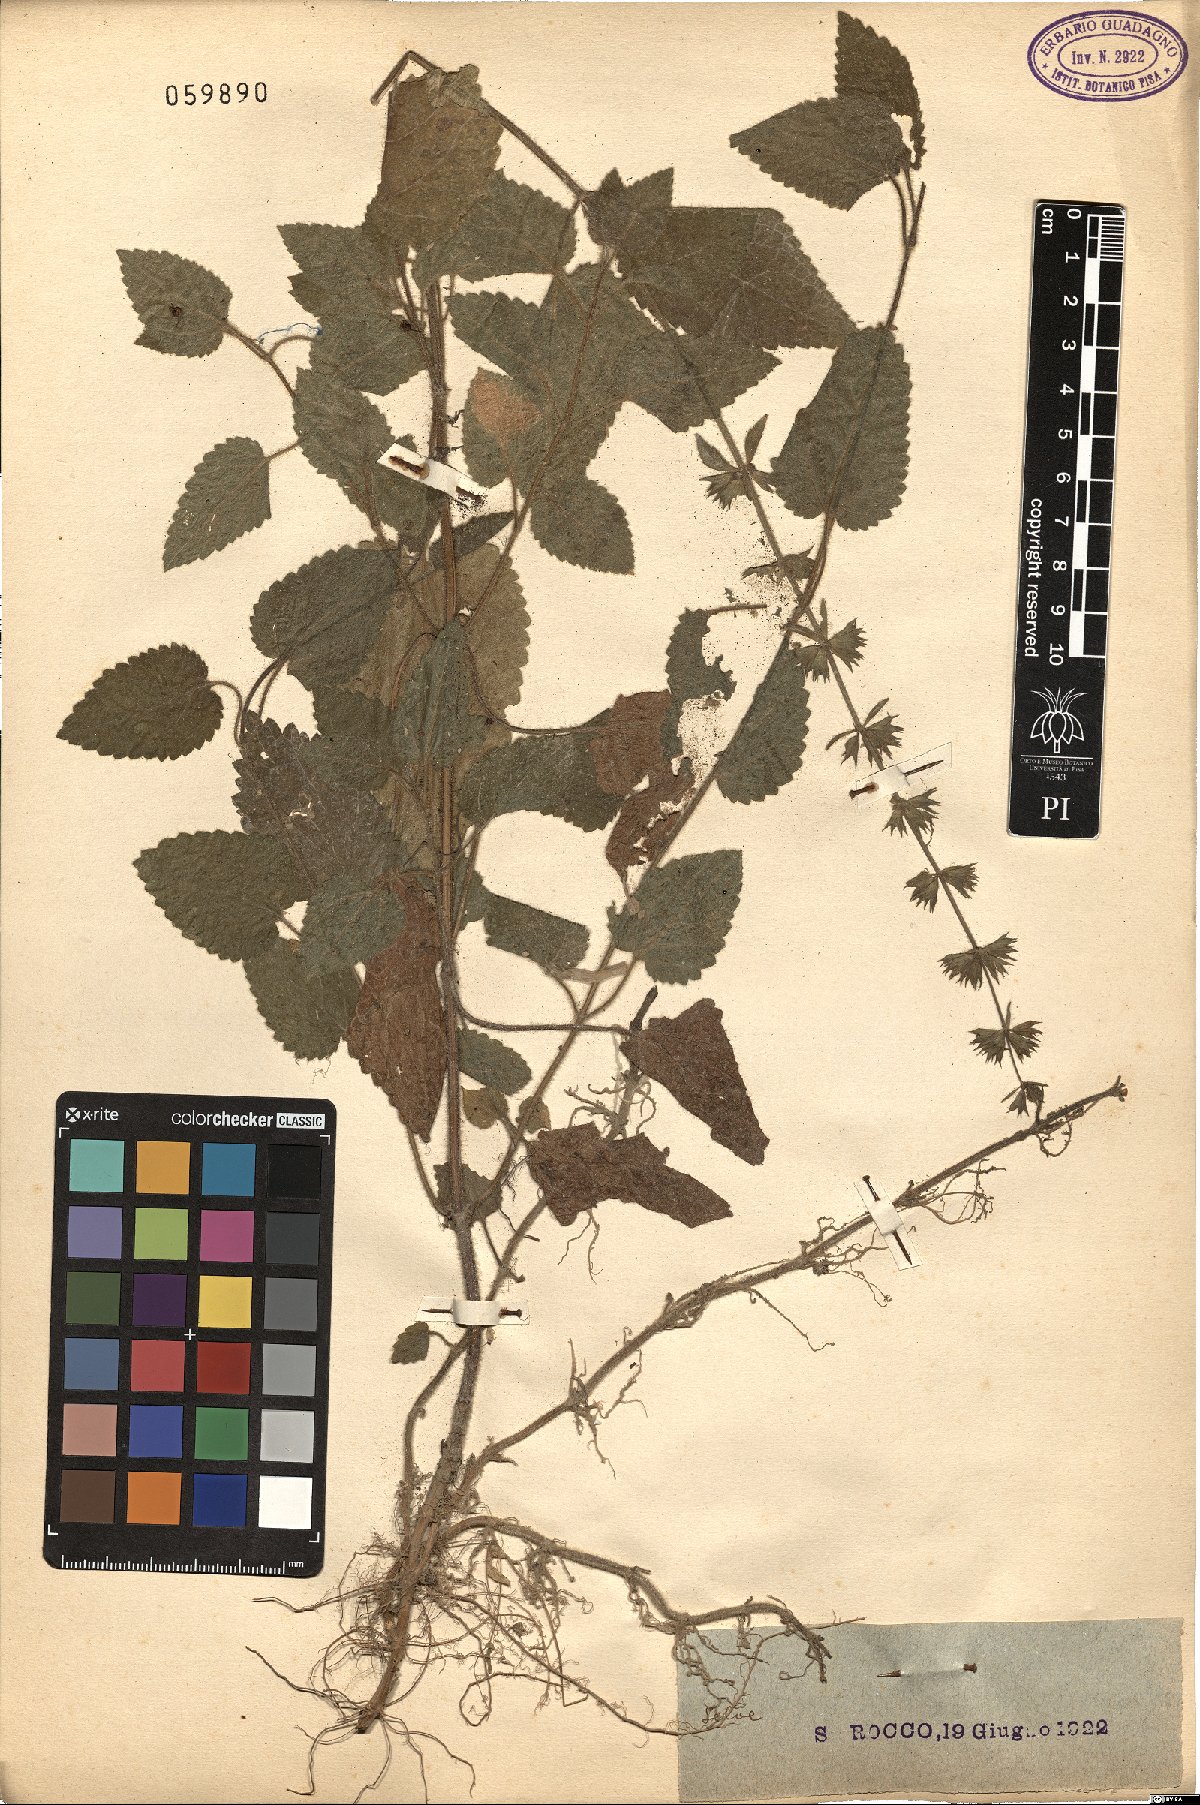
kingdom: Plantae
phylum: Tracheophyta
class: Magnoliopsida
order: Lamiales
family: Lamiaceae
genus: Stachys
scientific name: Stachys ocymastrum
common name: Italian hedgenettle
